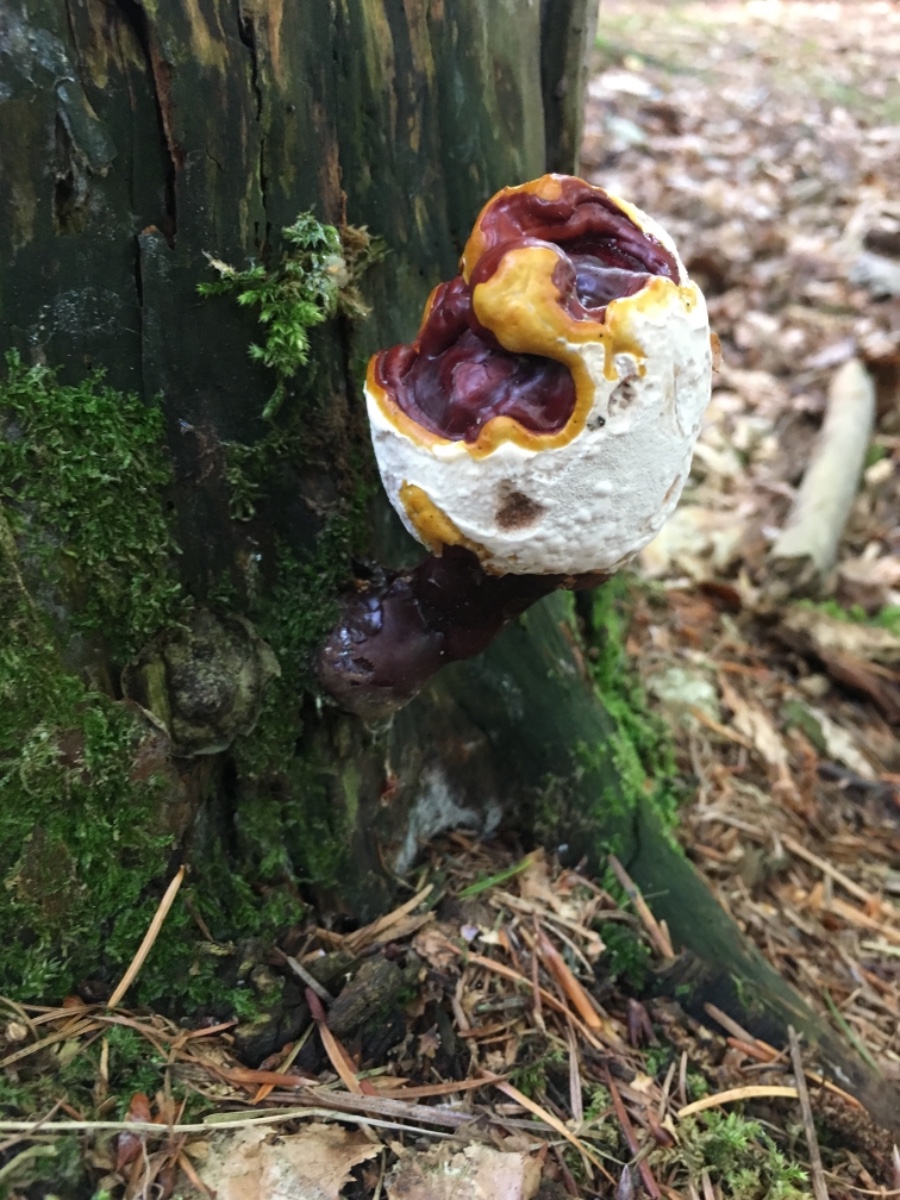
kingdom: Fungi
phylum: Basidiomycota
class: Agaricomycetes
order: Polyporales
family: Polyporaceae
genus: Ganoderma
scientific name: Ganoderma lucidum
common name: skinnende lakporesvamp
